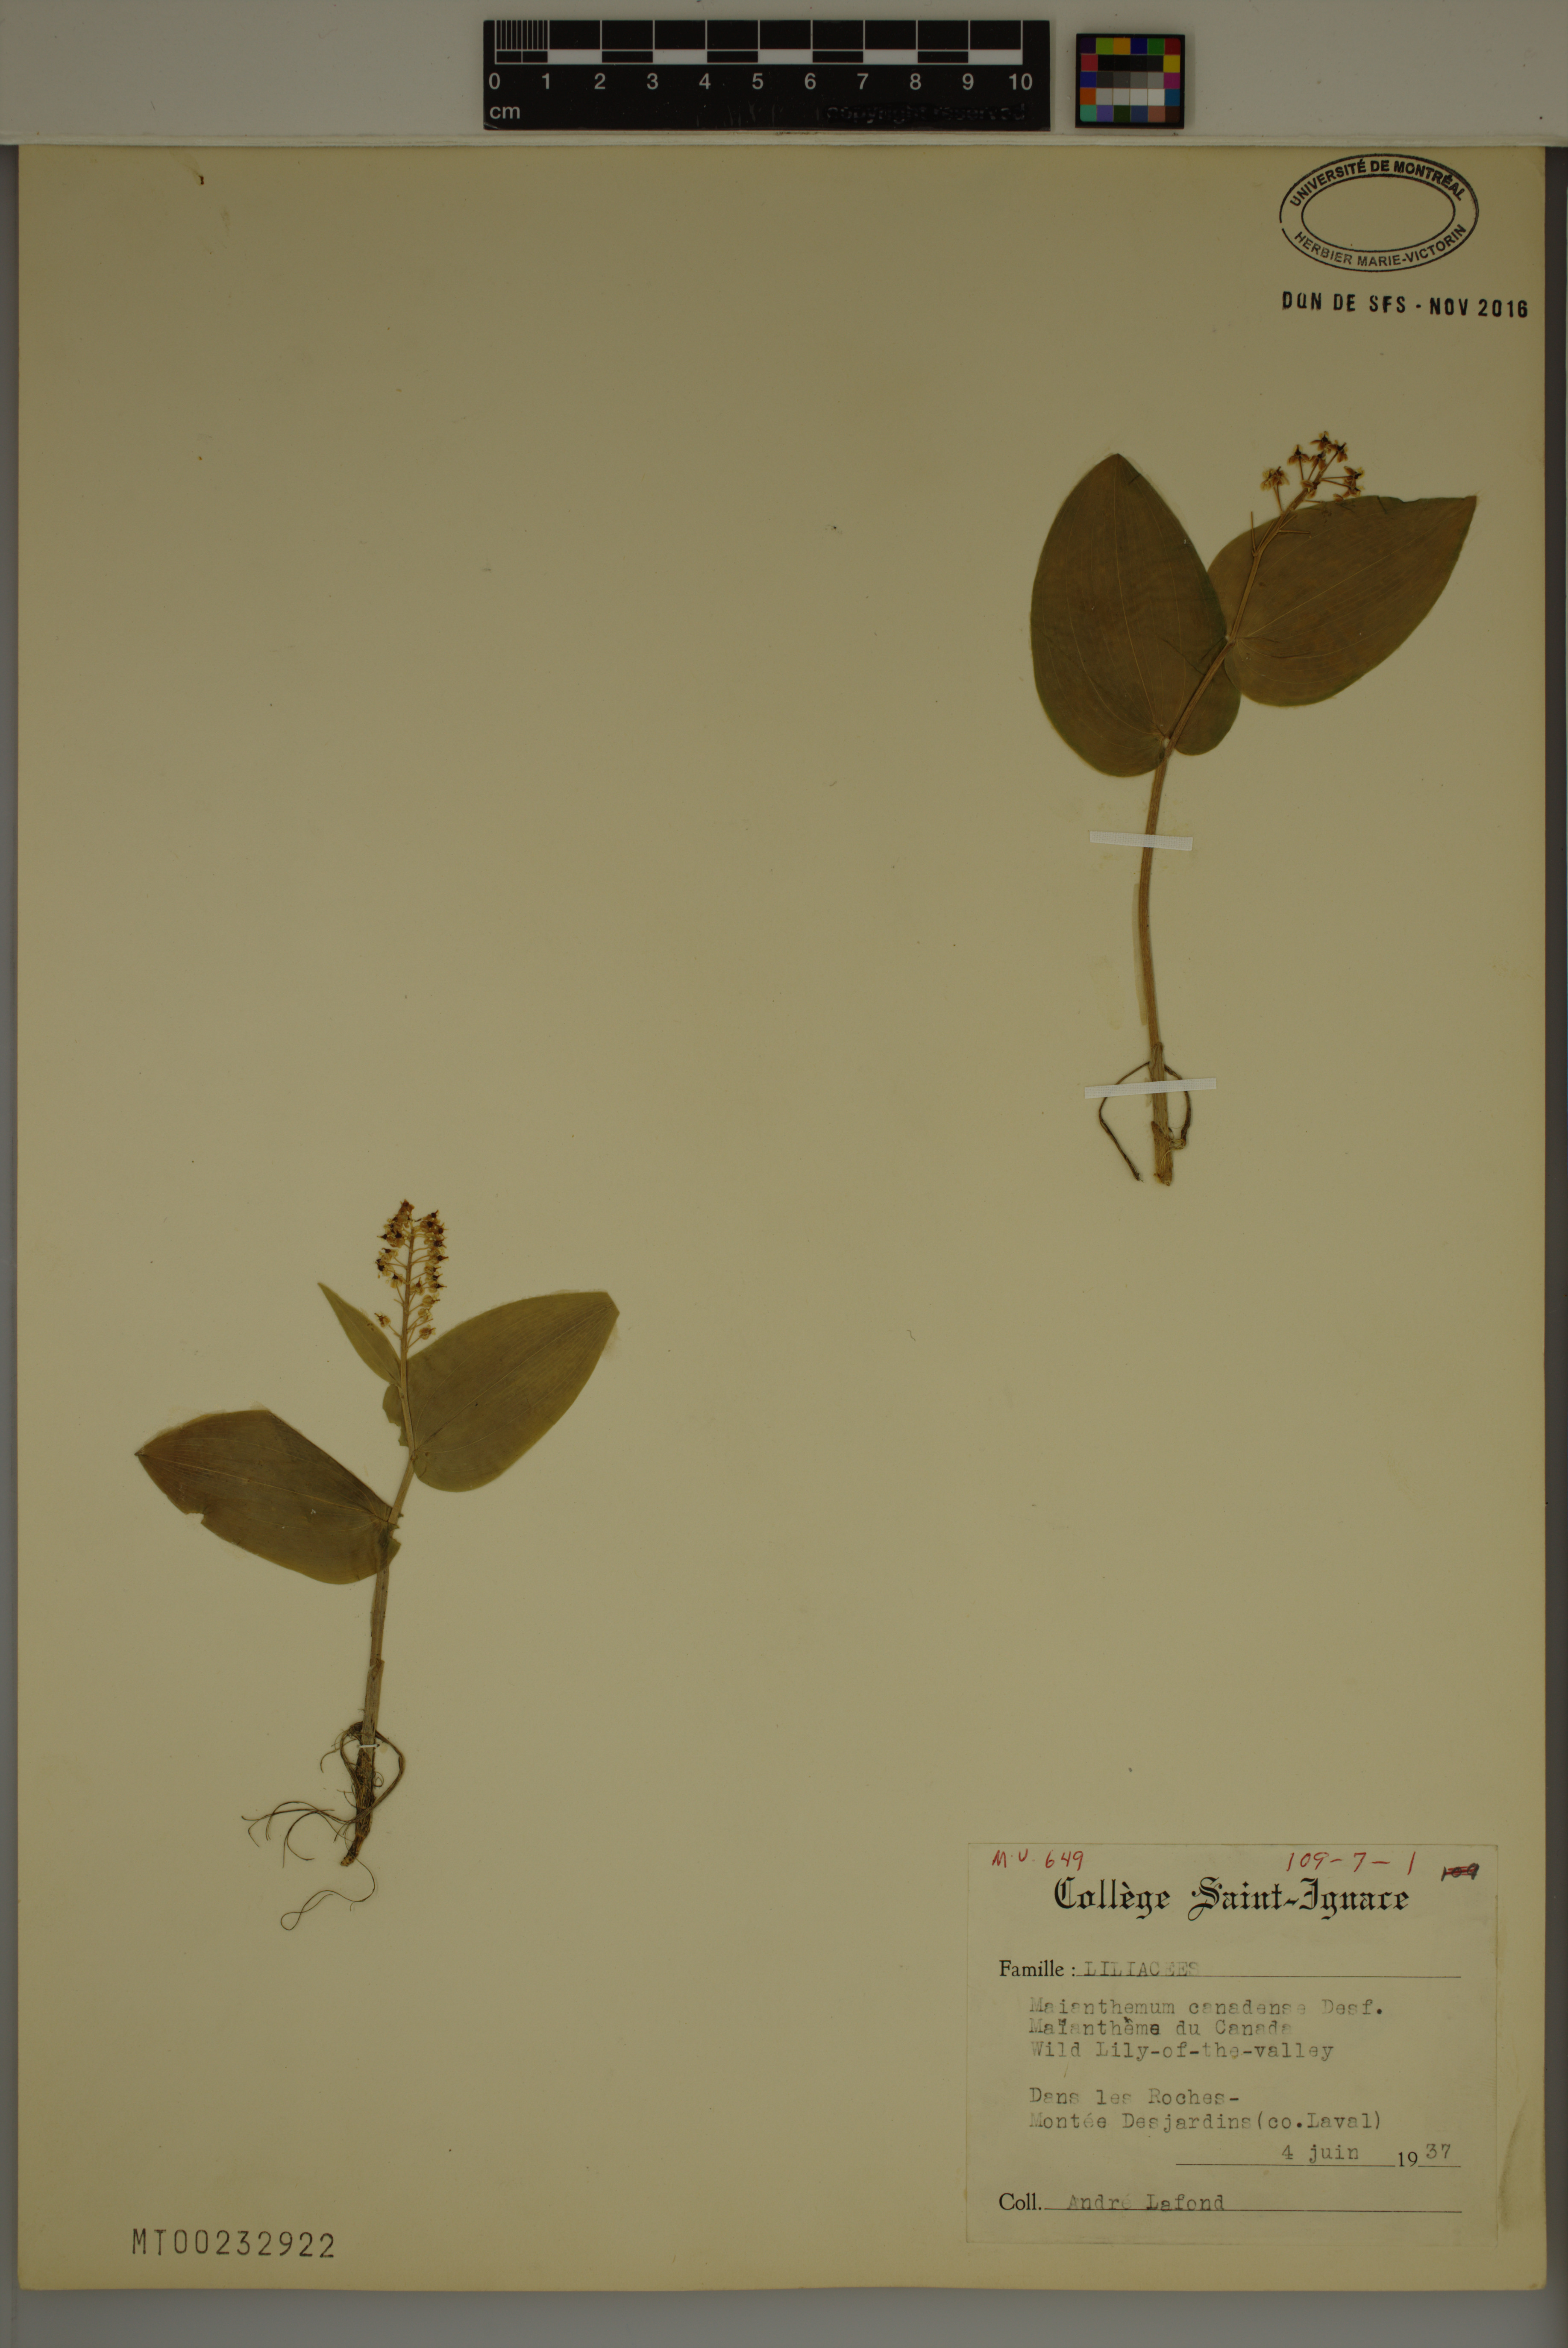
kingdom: Plantae
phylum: Tracheophyta
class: Liliopsida
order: Asparagales
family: Asparagaceae
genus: Maianthemum
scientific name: Maianthemum canadense
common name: False lily-of-the-valley
